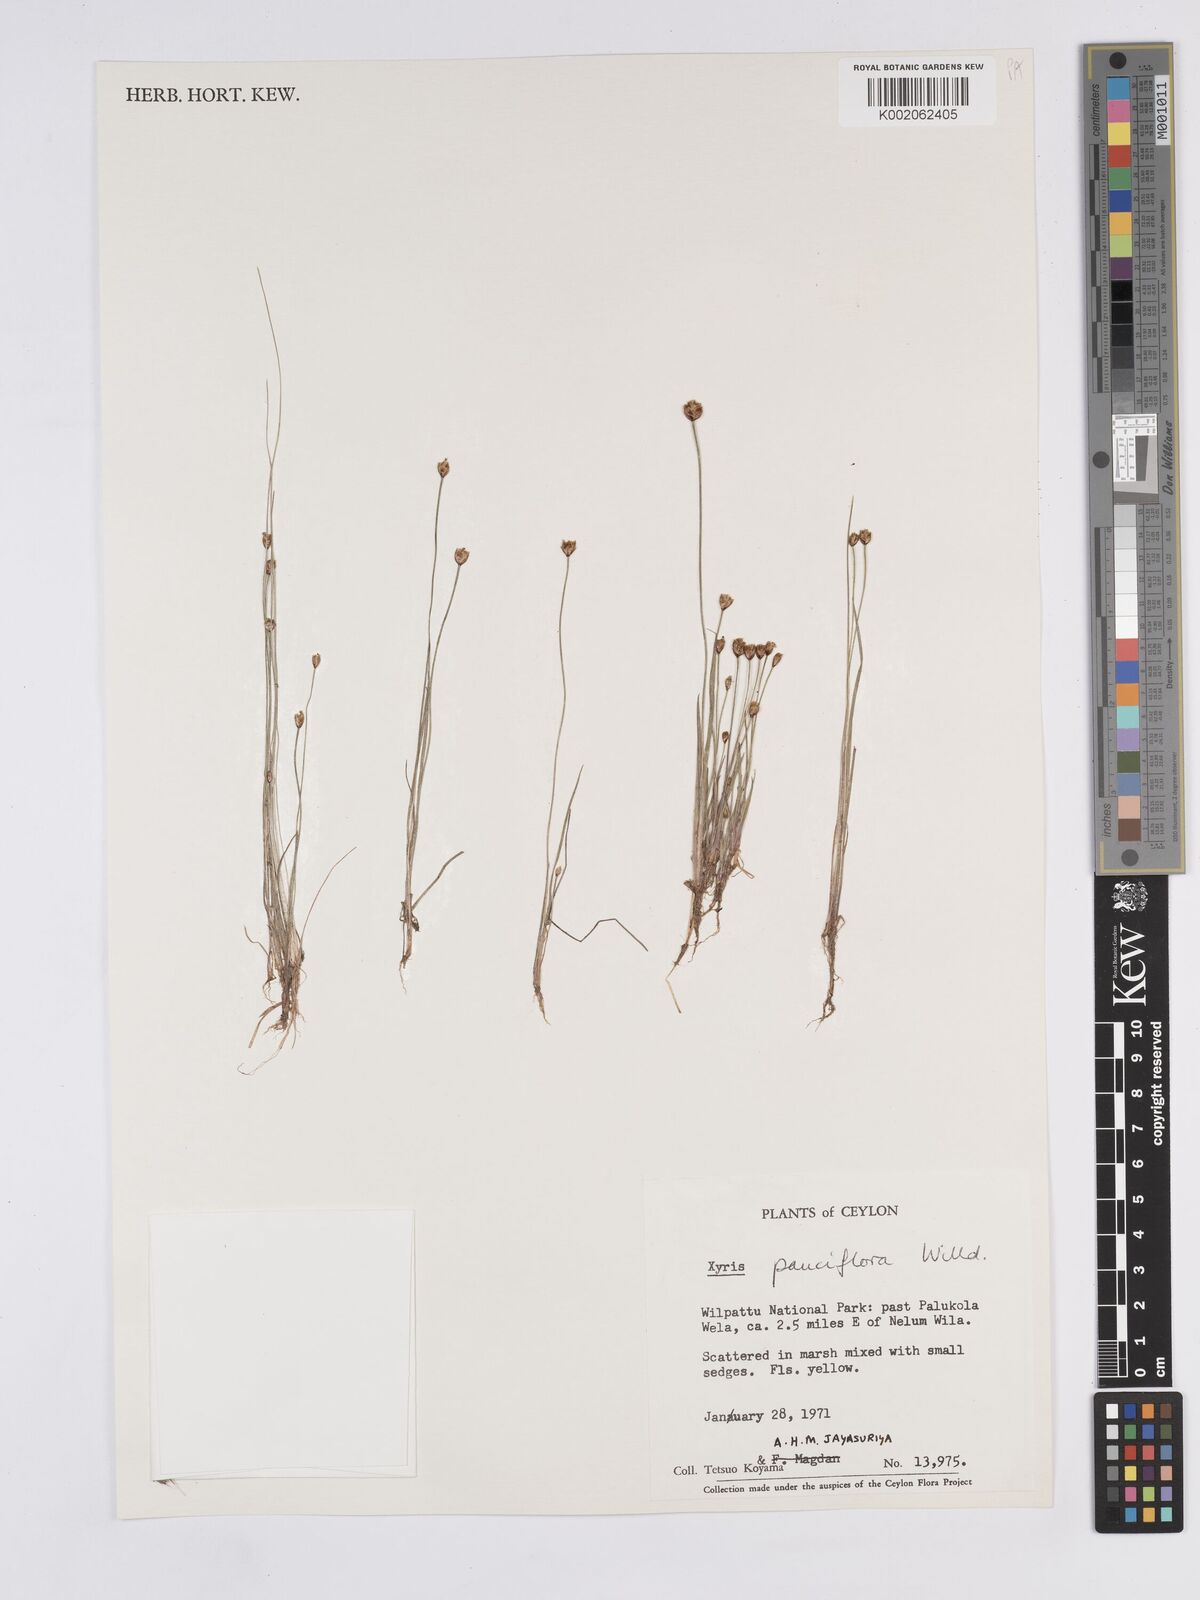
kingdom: Plantae
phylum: Tracheophyta
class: Liliopsida
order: Poales
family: Xyridaceae
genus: Xyris
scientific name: Xyris pauciflora
